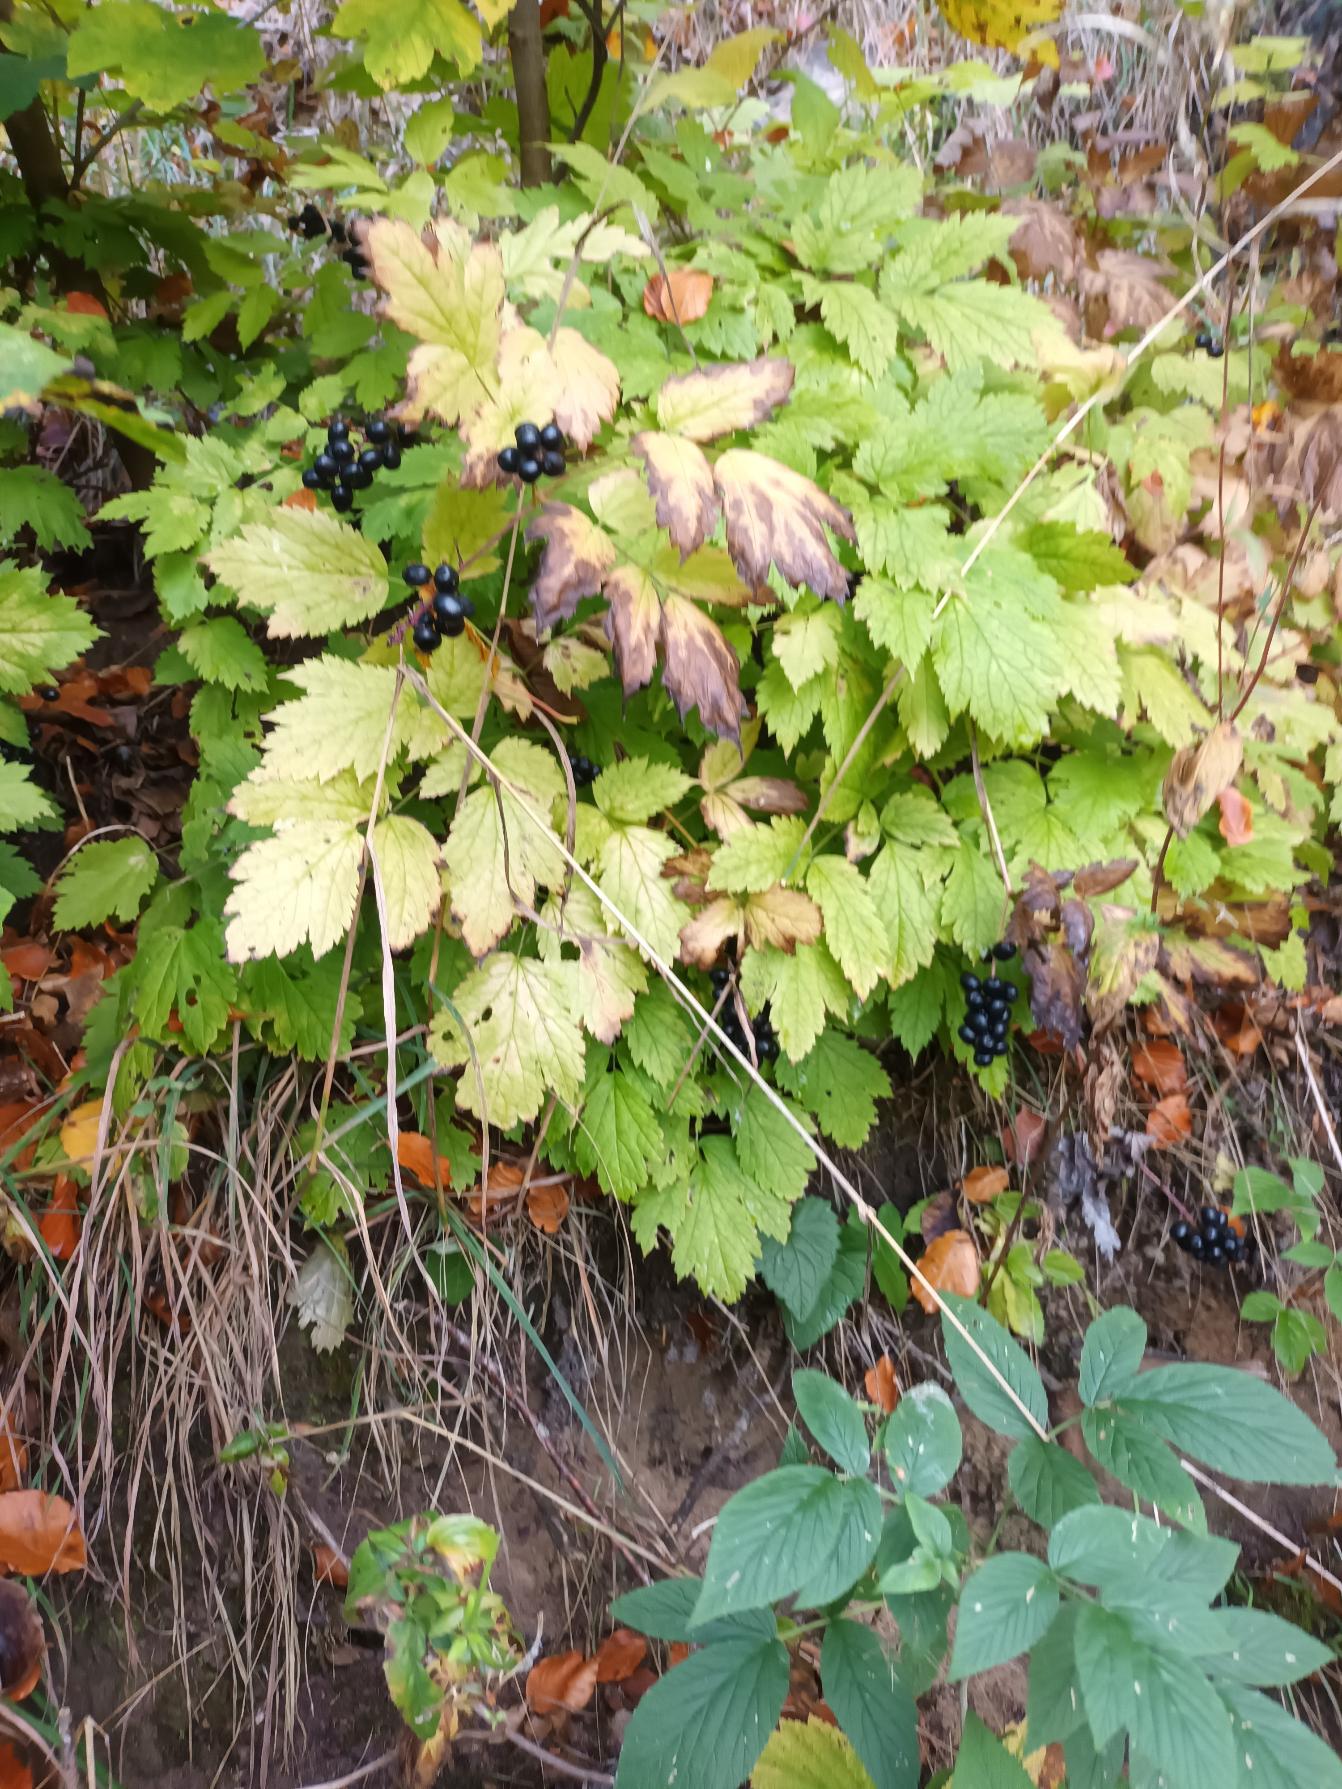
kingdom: Plantae
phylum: Tracheophyta
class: Magnoliopsida
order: Ranunculales
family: Ranunculaceae
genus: Actaea
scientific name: Actaea spicata
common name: Druemunke
